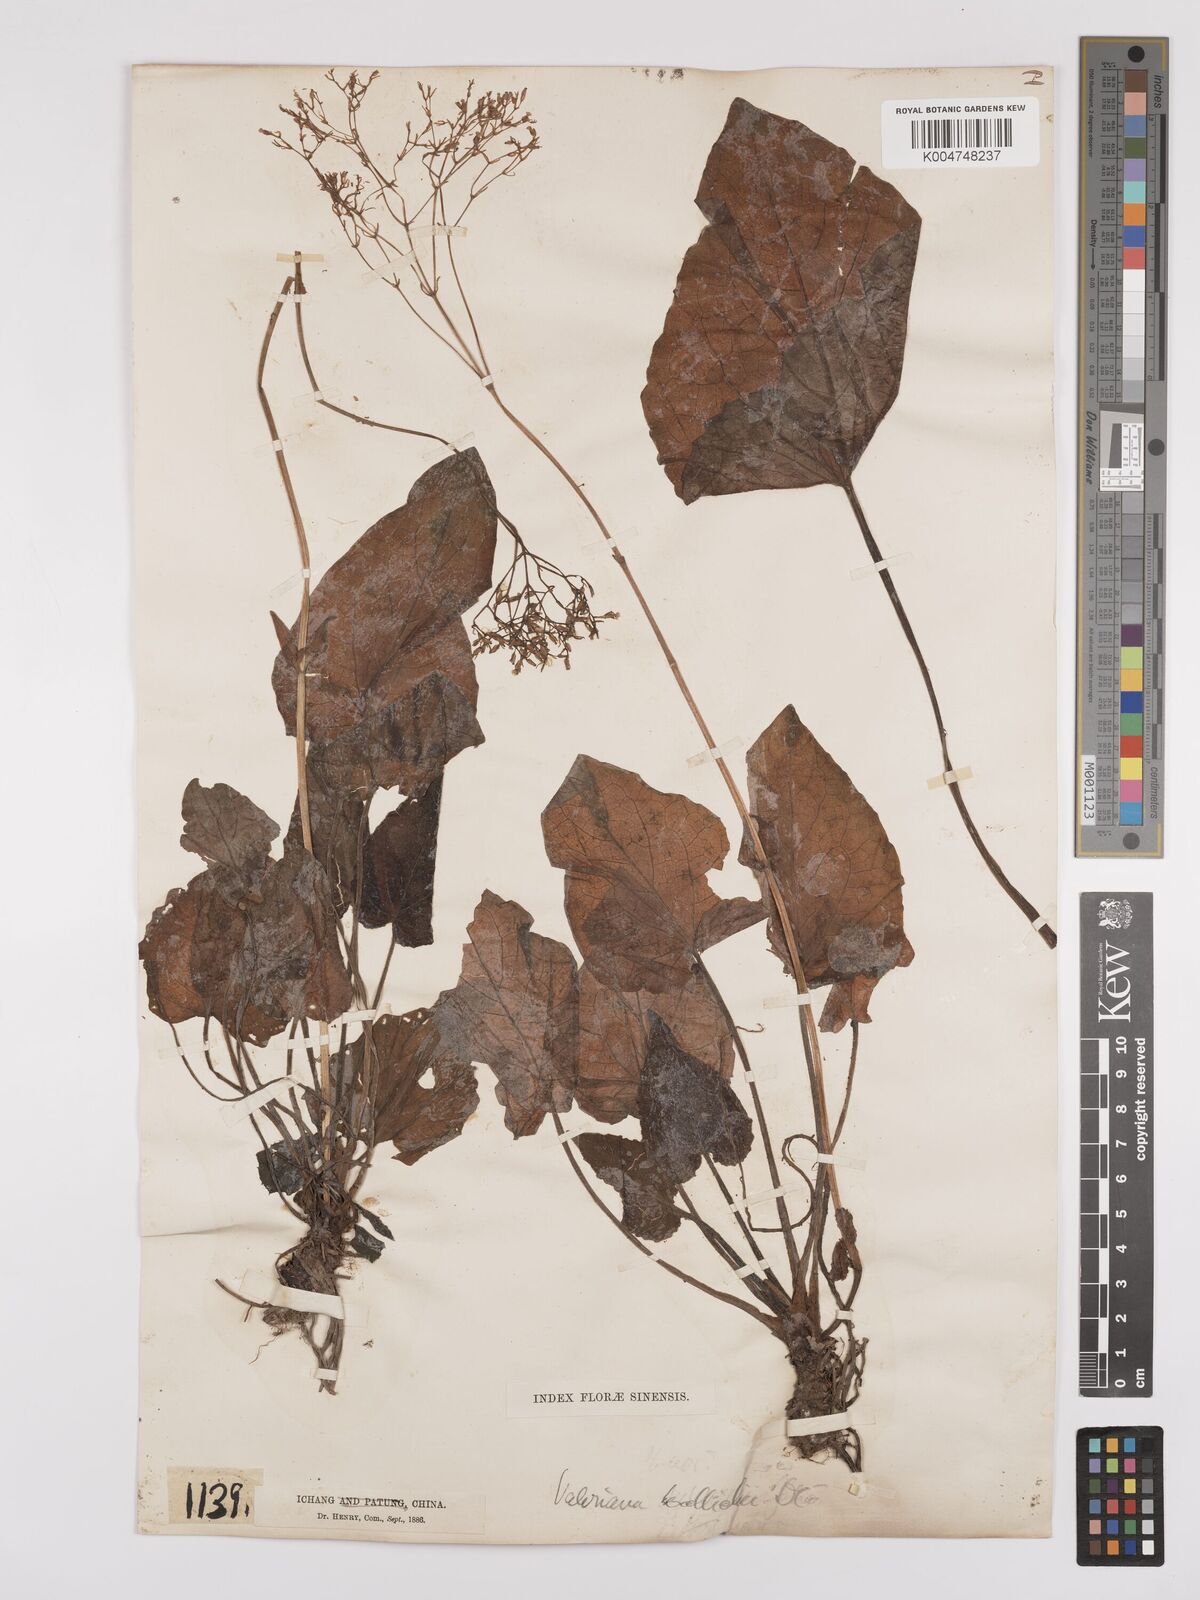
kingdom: Plantae
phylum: Tracheophyta
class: Magnoliopsida
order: Dipsacales
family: Caprifoliaceae
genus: Valeriana
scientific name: Valeriana
